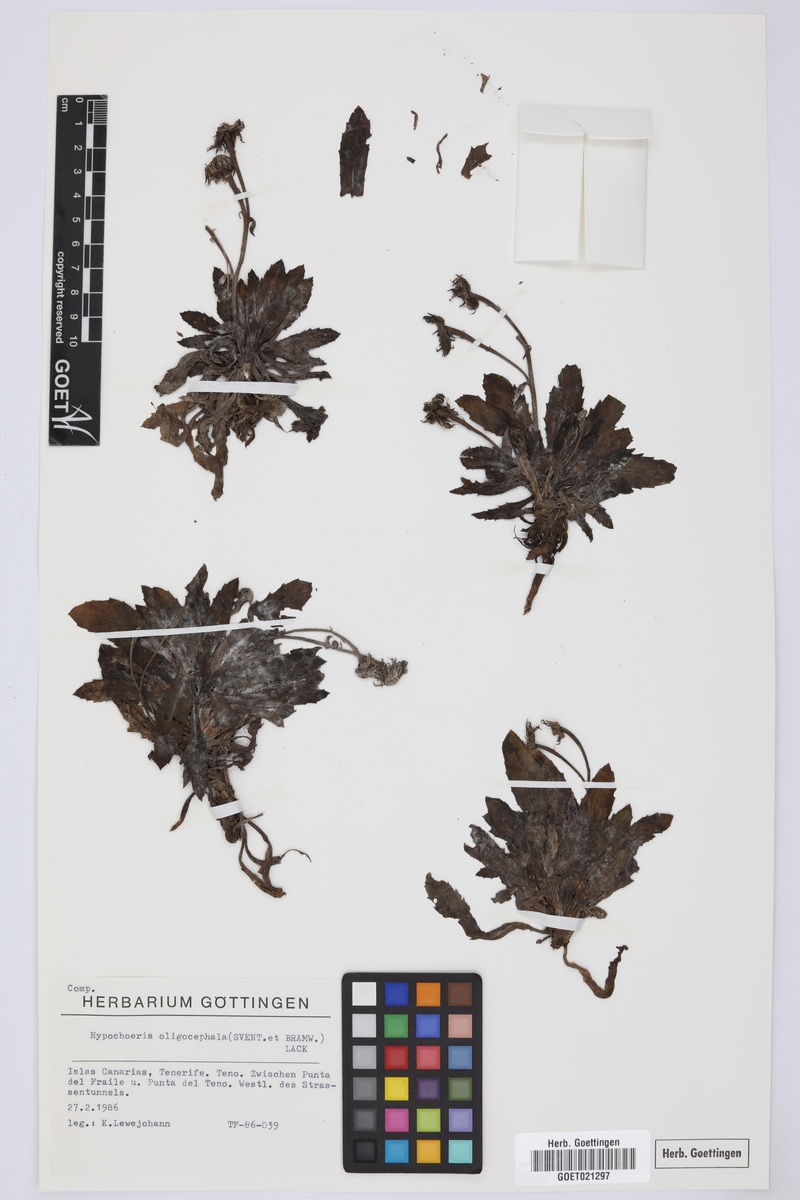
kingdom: Plantae
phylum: Tracheophyta
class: Magnoliopsida
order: Asterales
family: Asteraceae
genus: Hypochaeris
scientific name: Hypochaeris oligocephala
